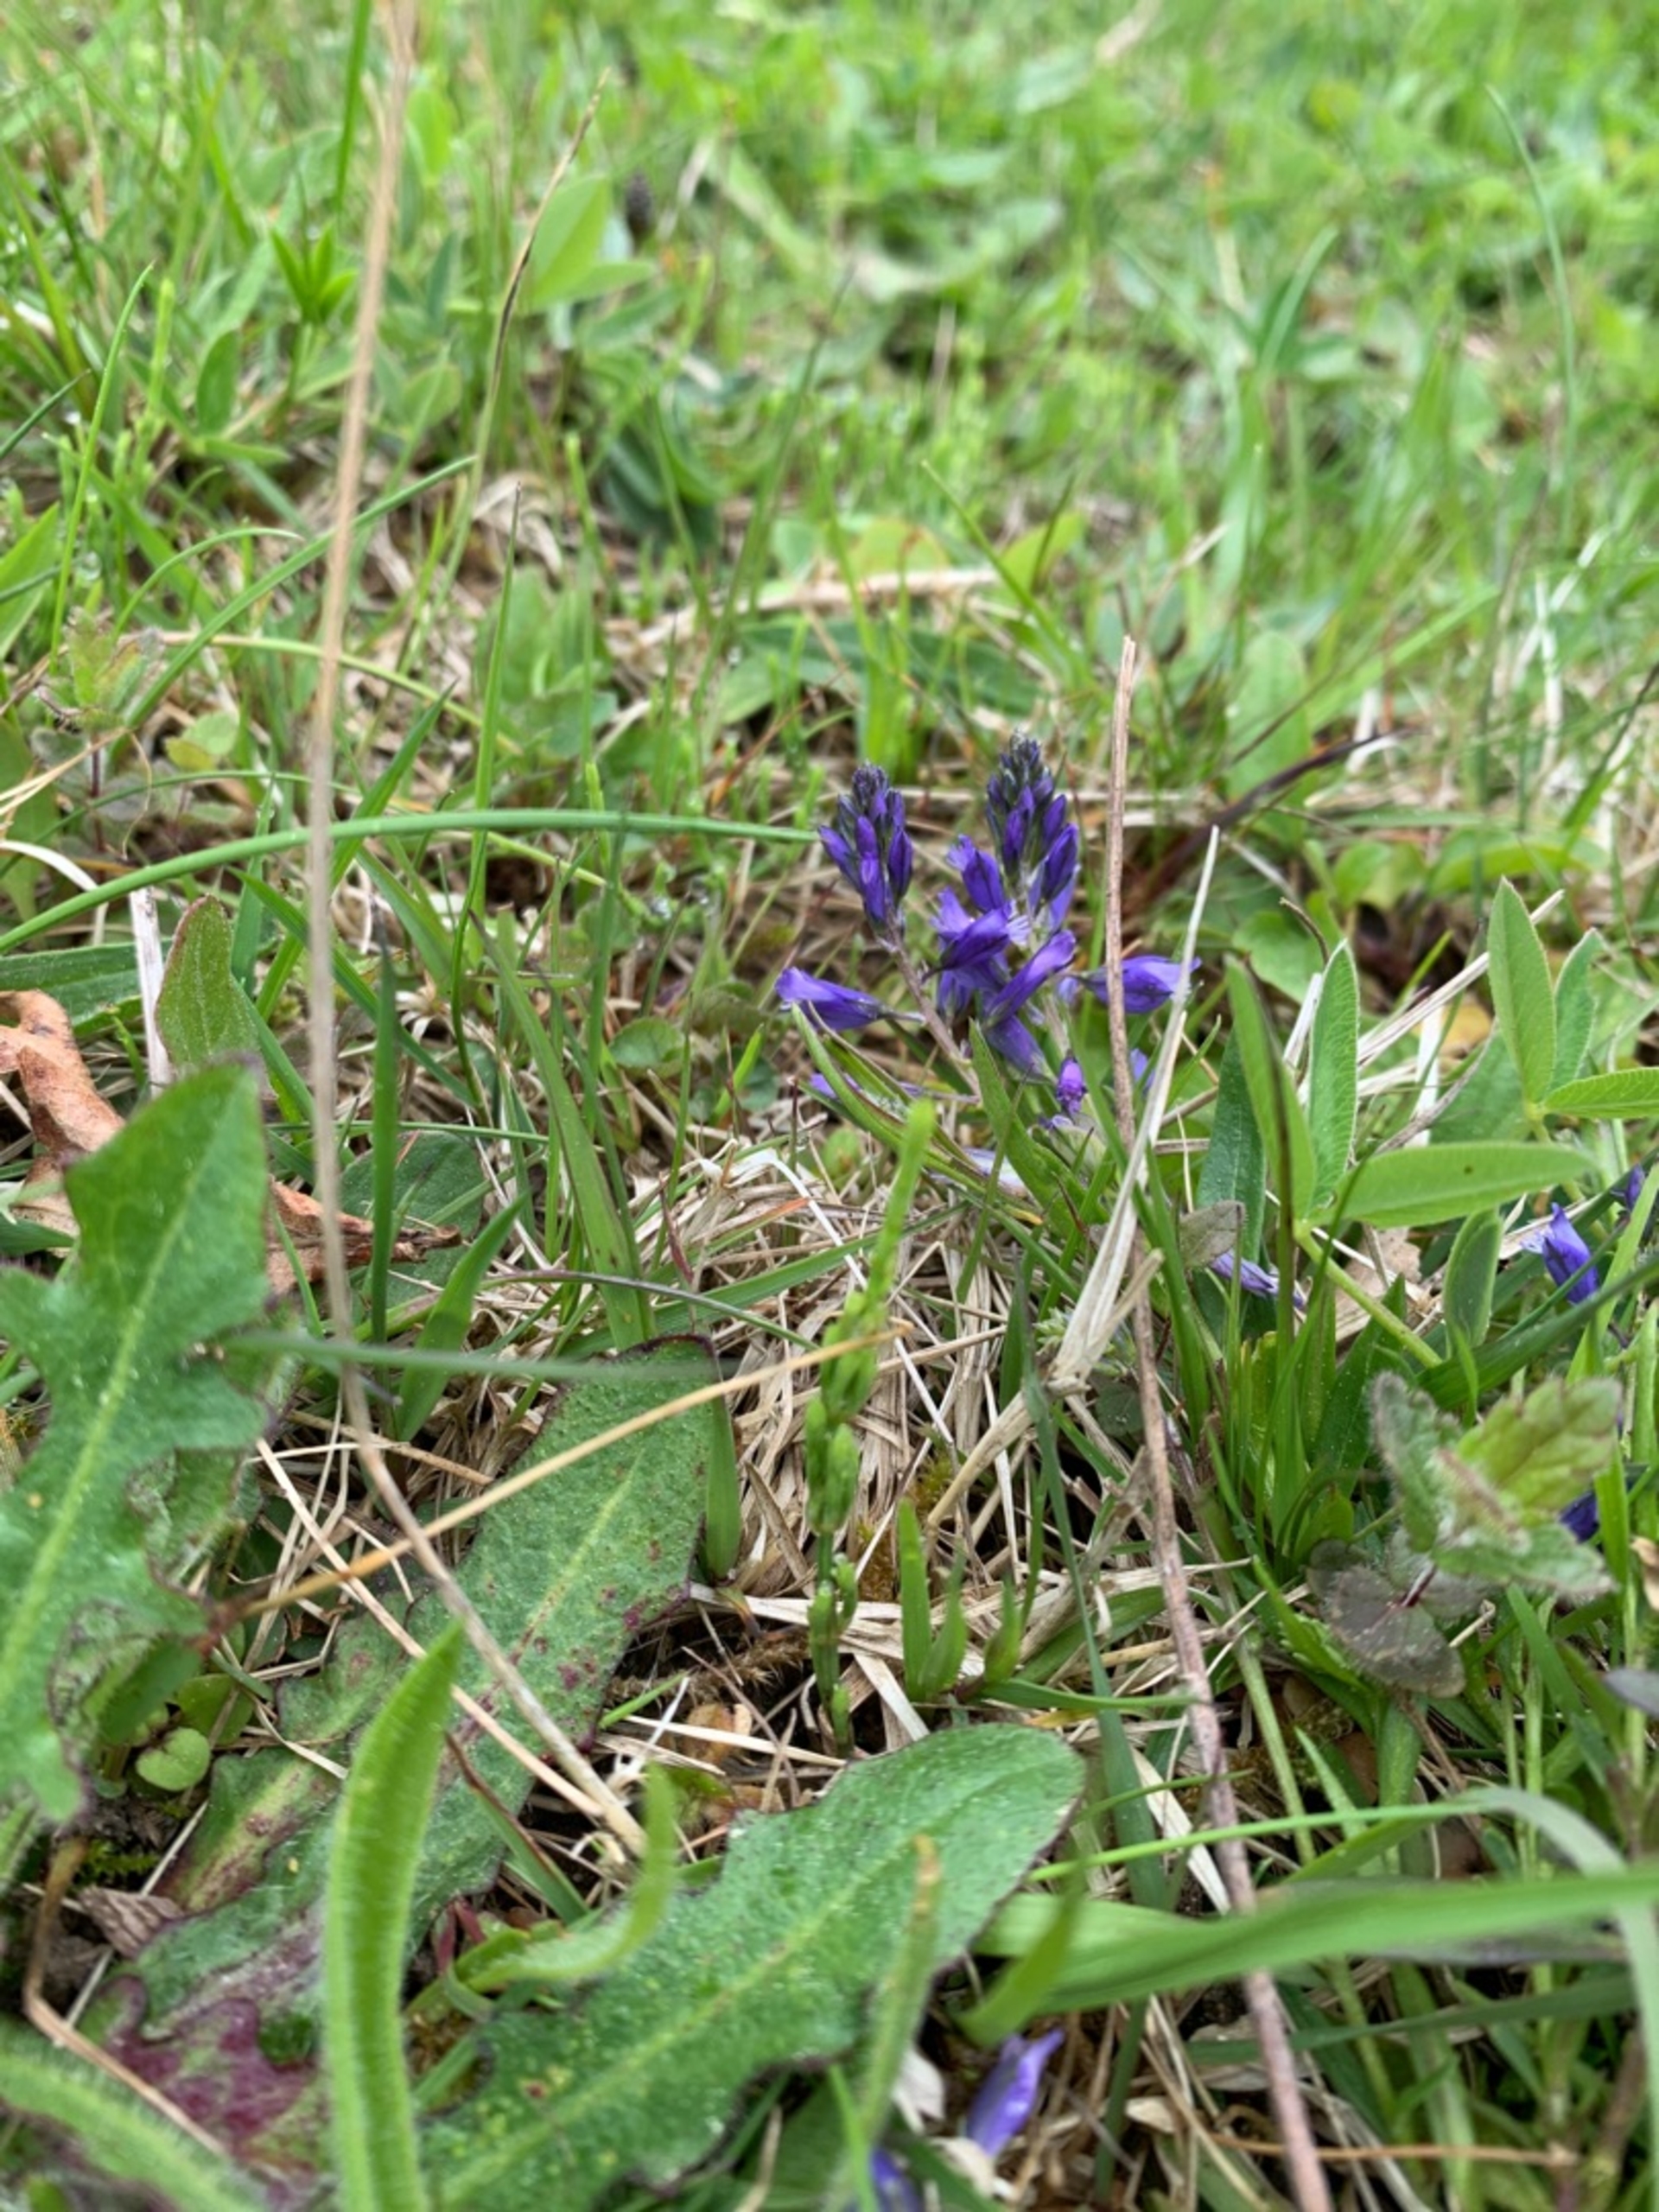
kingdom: Plantae
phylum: Tracheophyta
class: Magnoliopsida
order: Fabales
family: Polygalaceae
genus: Polygala
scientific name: Polygala vulgaris
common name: Almindelig mælkeurt
